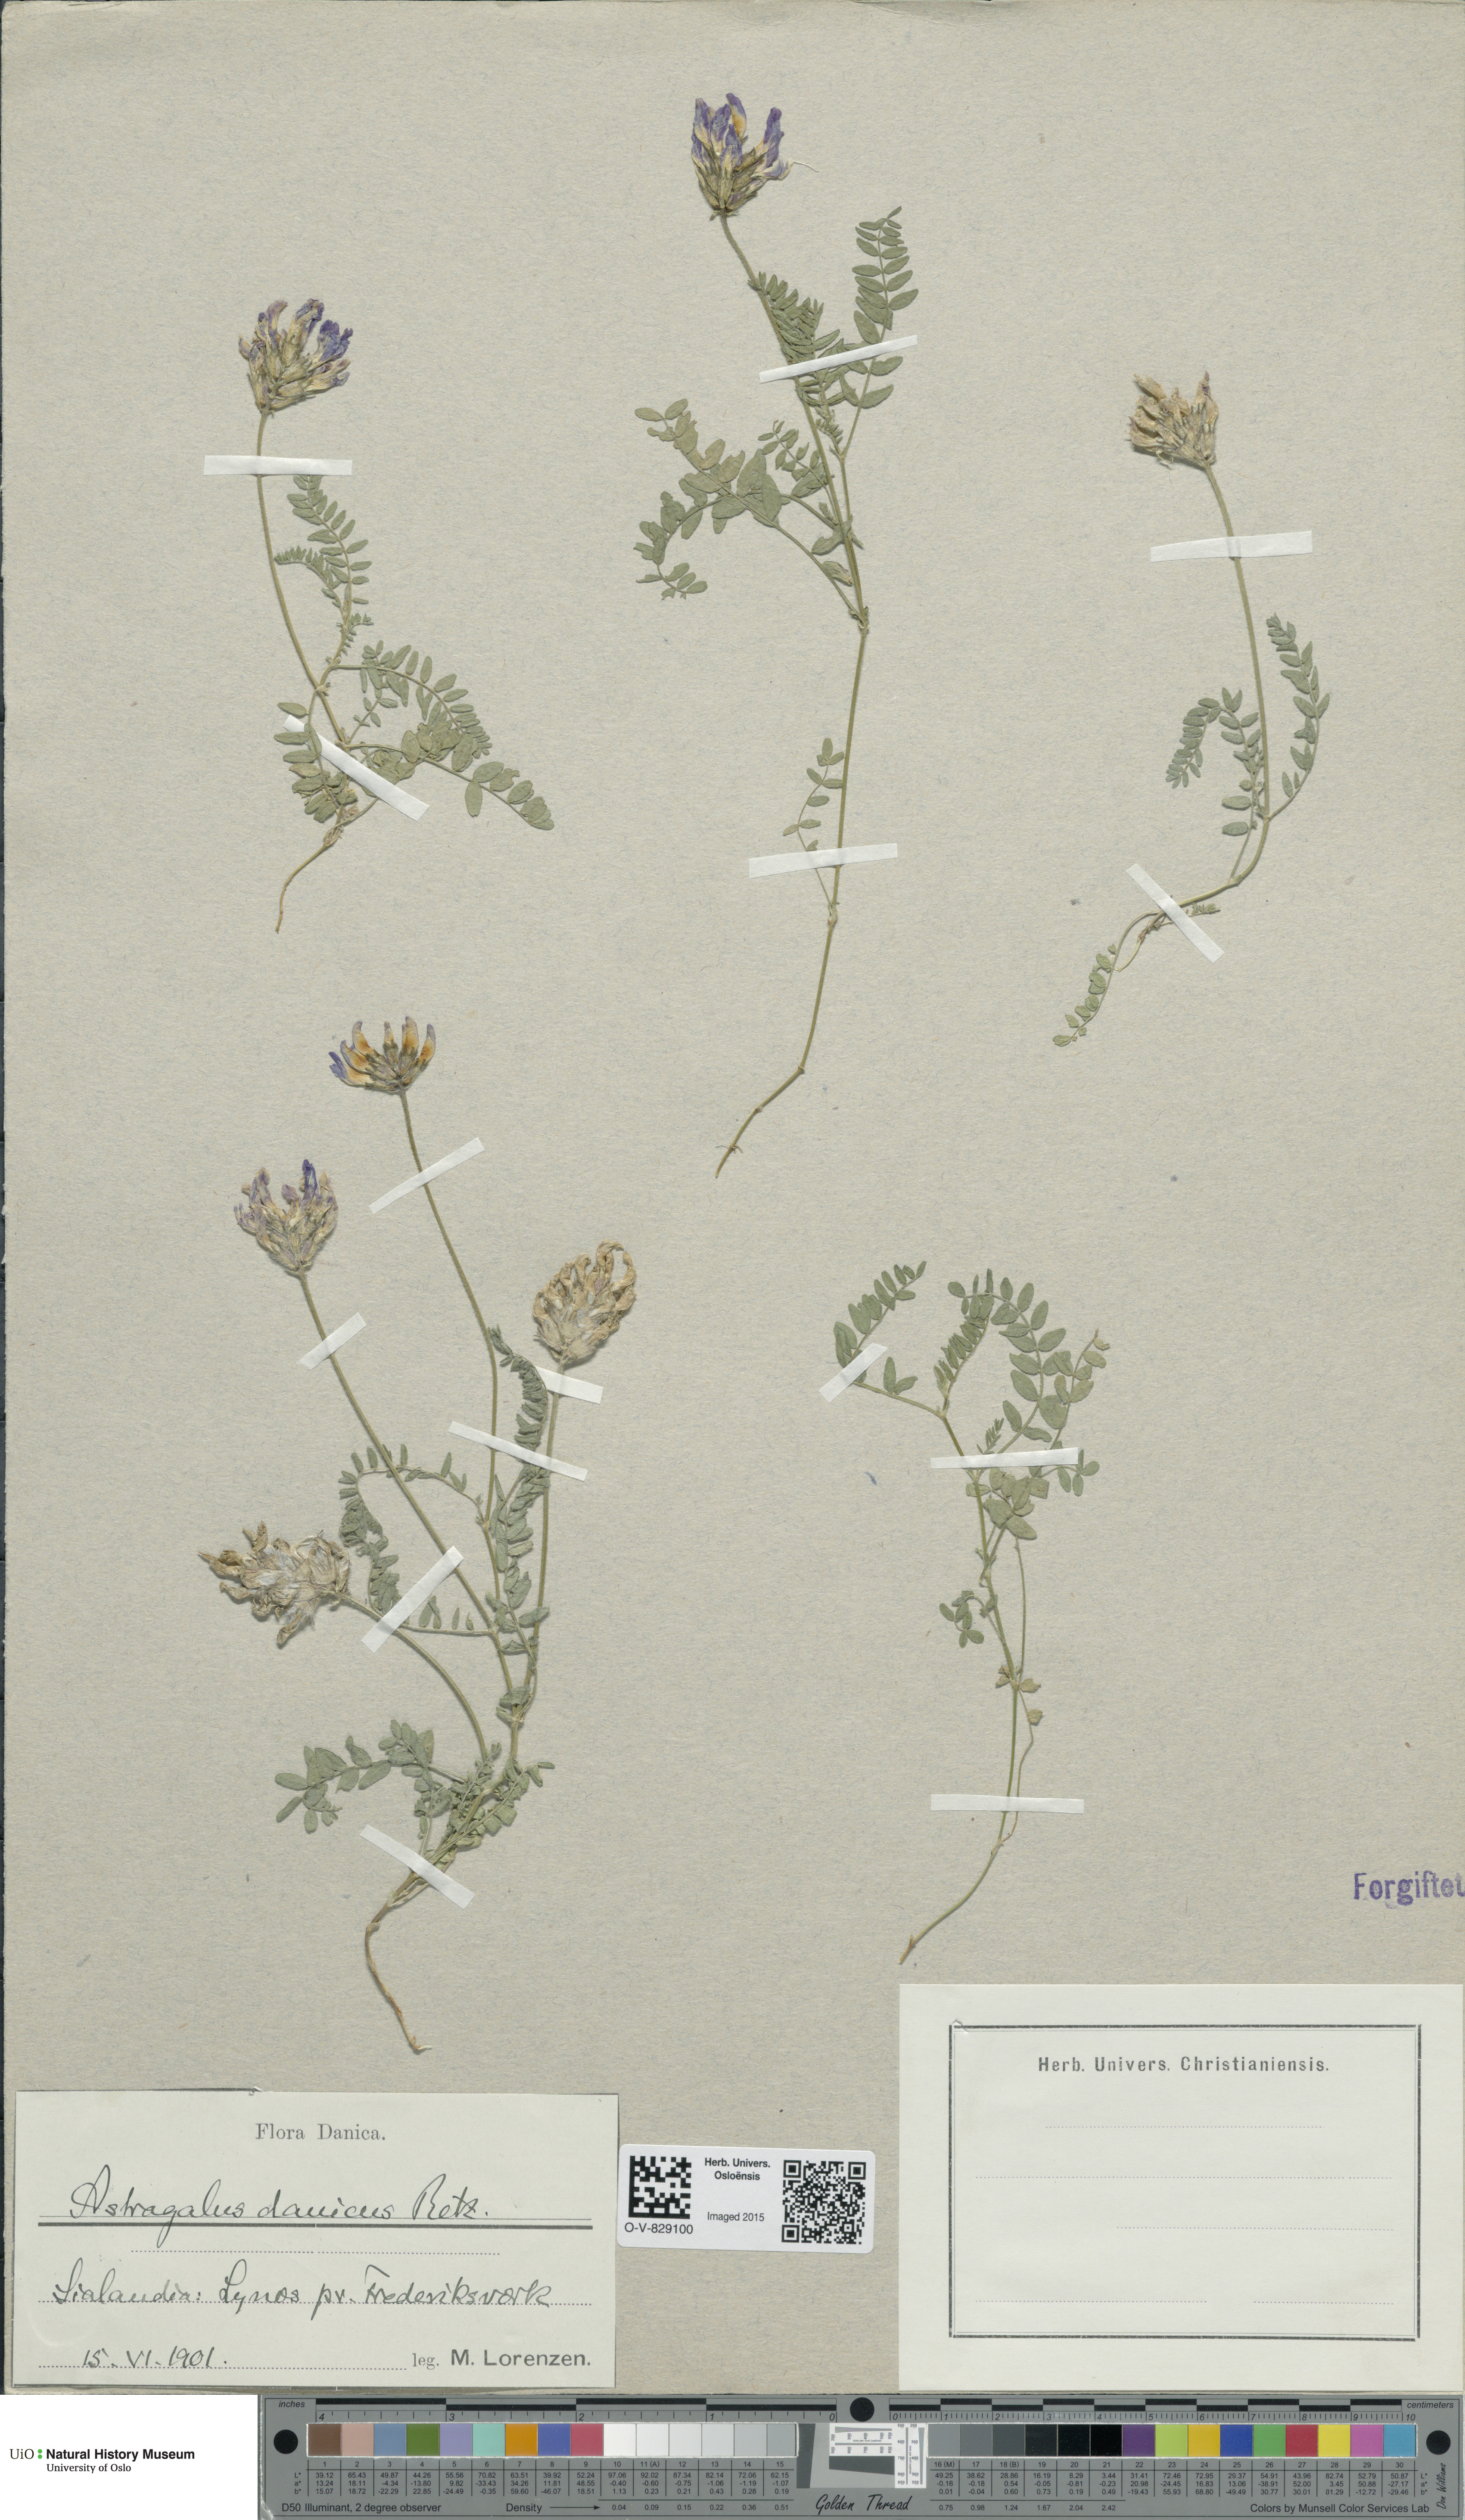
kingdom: Plantae
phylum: Tracheophyta
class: Magnoliopsida
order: Fabales
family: Fabaceae
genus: Astragalus
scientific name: Astragalus danicus
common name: Purple milk-vetch
